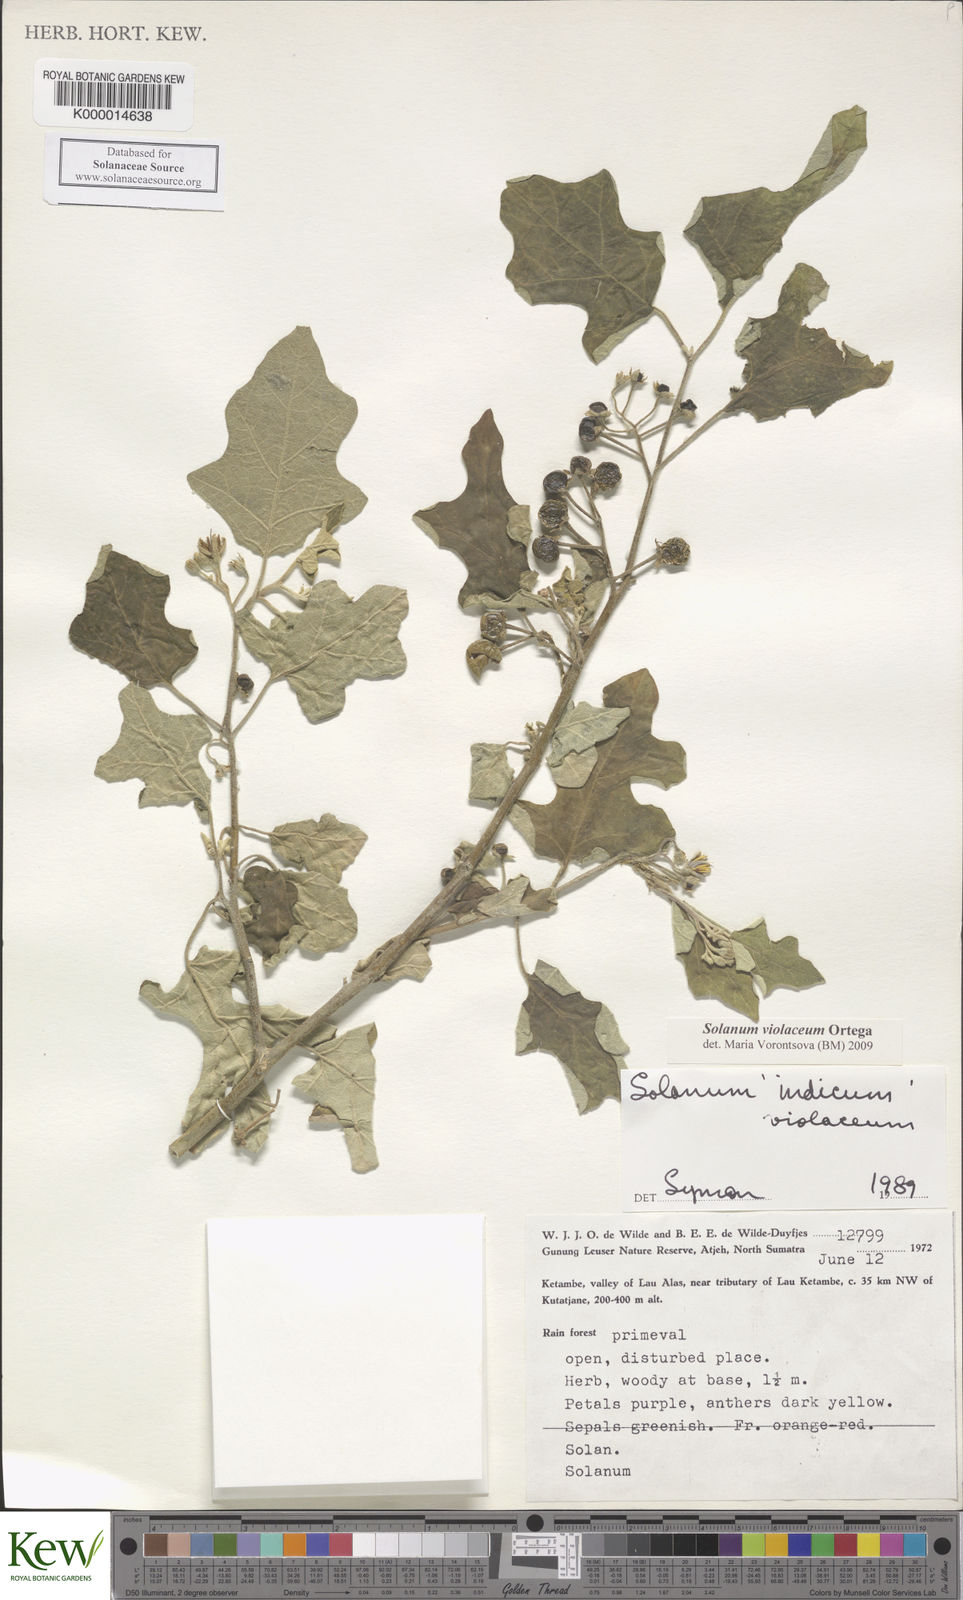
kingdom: Plantae
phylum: Tracheophyta
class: Magnoliopsida
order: Solanales
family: Solanaceae
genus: Solanum
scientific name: Solanum violaceum
